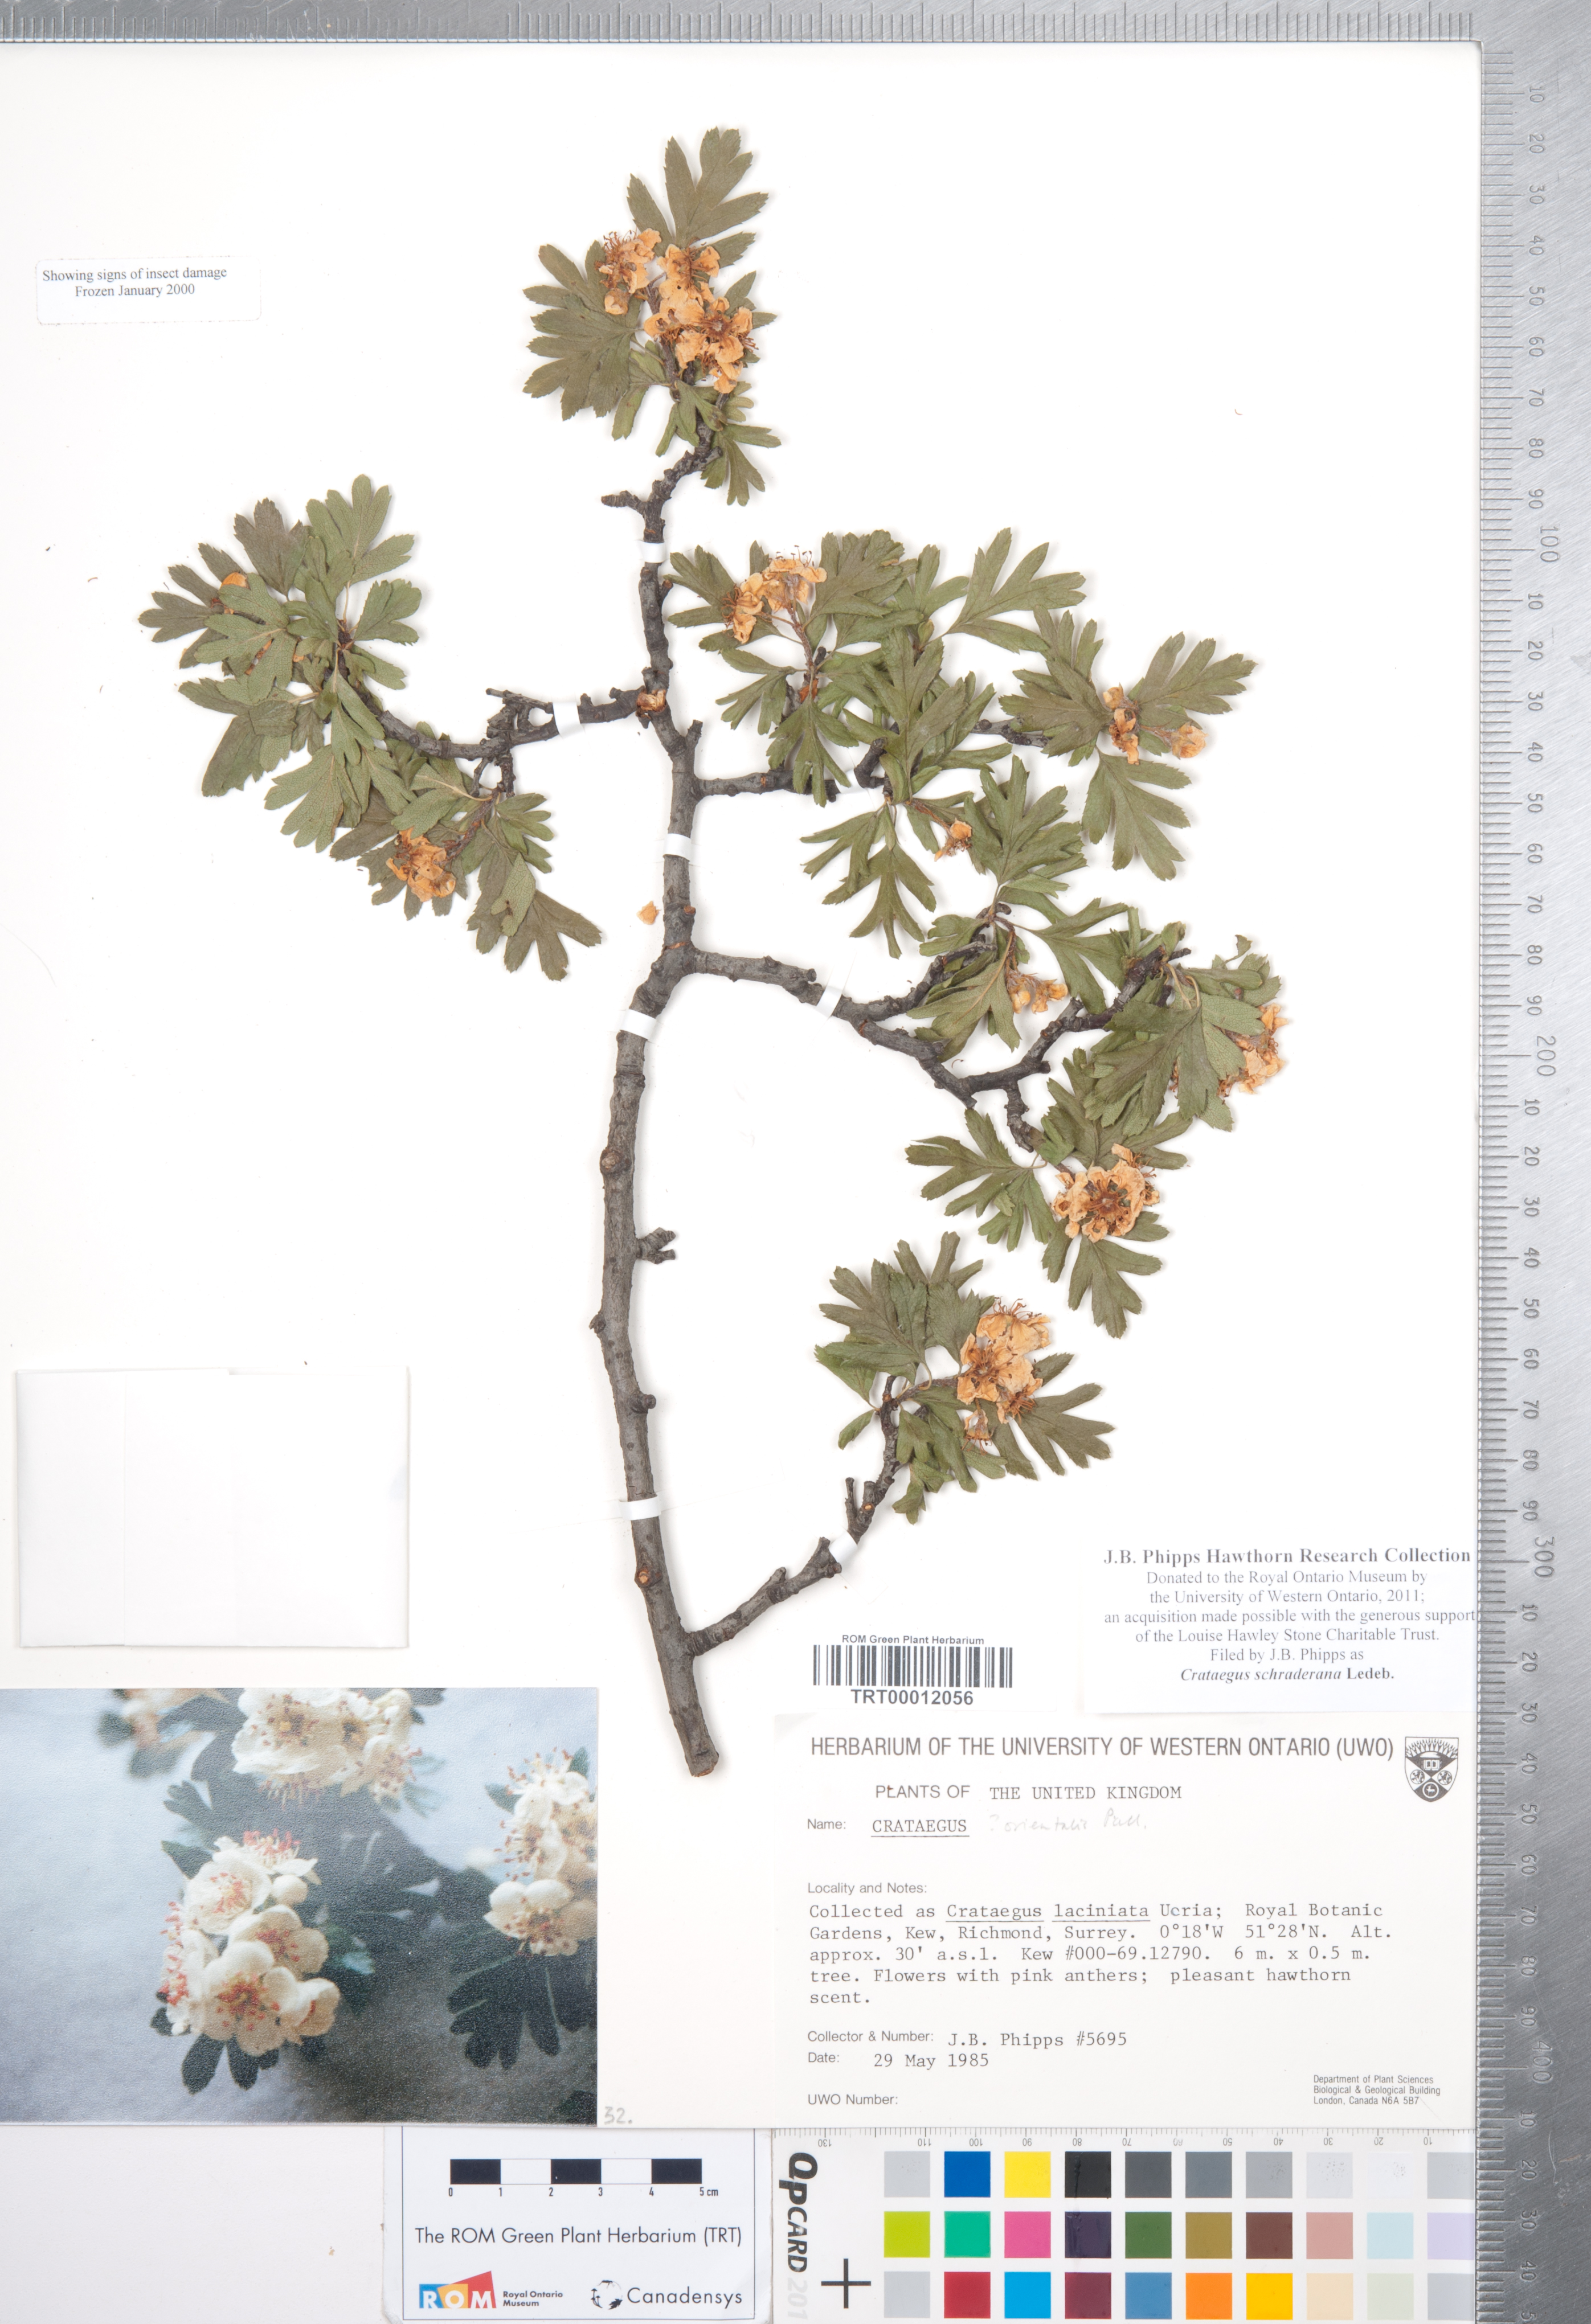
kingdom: Plantae
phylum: Tracheophyta
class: Magnoliopsida
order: Rosales
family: Rosaceae
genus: Crataegus
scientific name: Crataegus orientalis
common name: Oriental hawthorn
